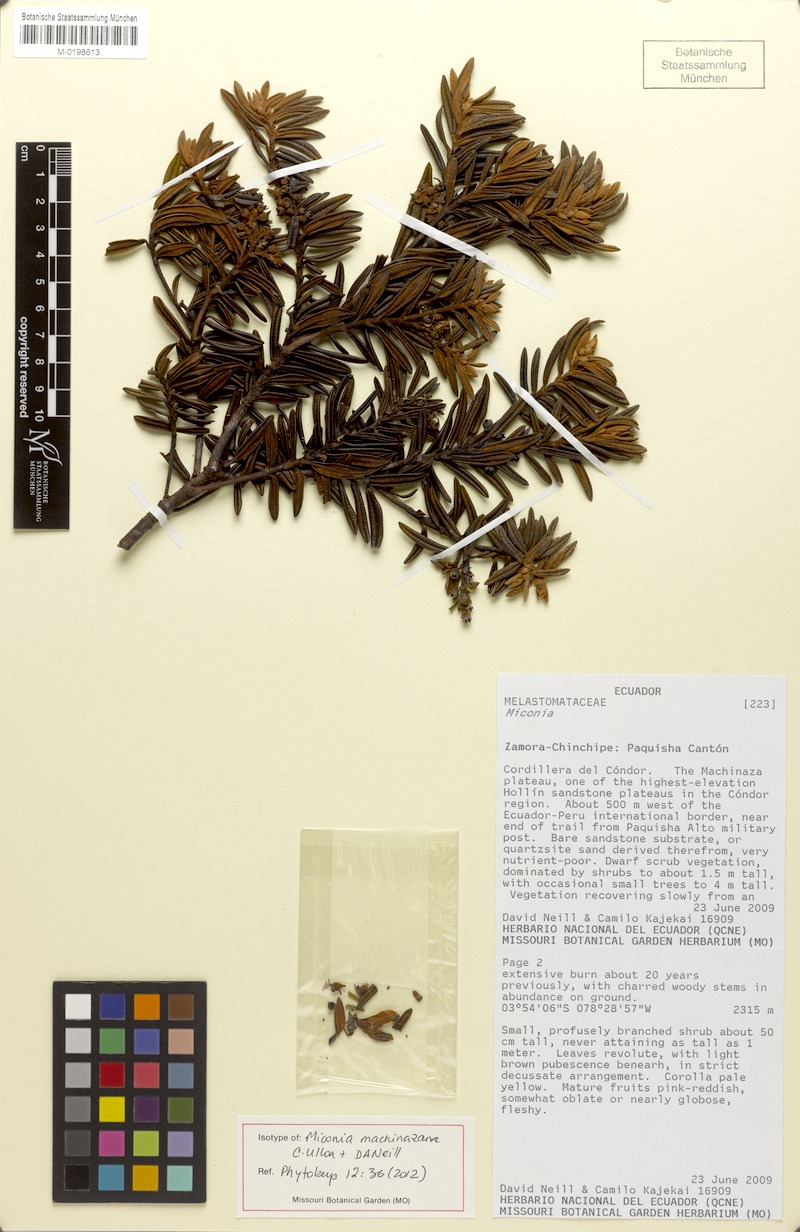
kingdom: Plantae
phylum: Tracheophyta
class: Magnoliopsida
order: Myrtales
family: Melastomataceae
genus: Miconia
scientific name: Miconia machinazana
